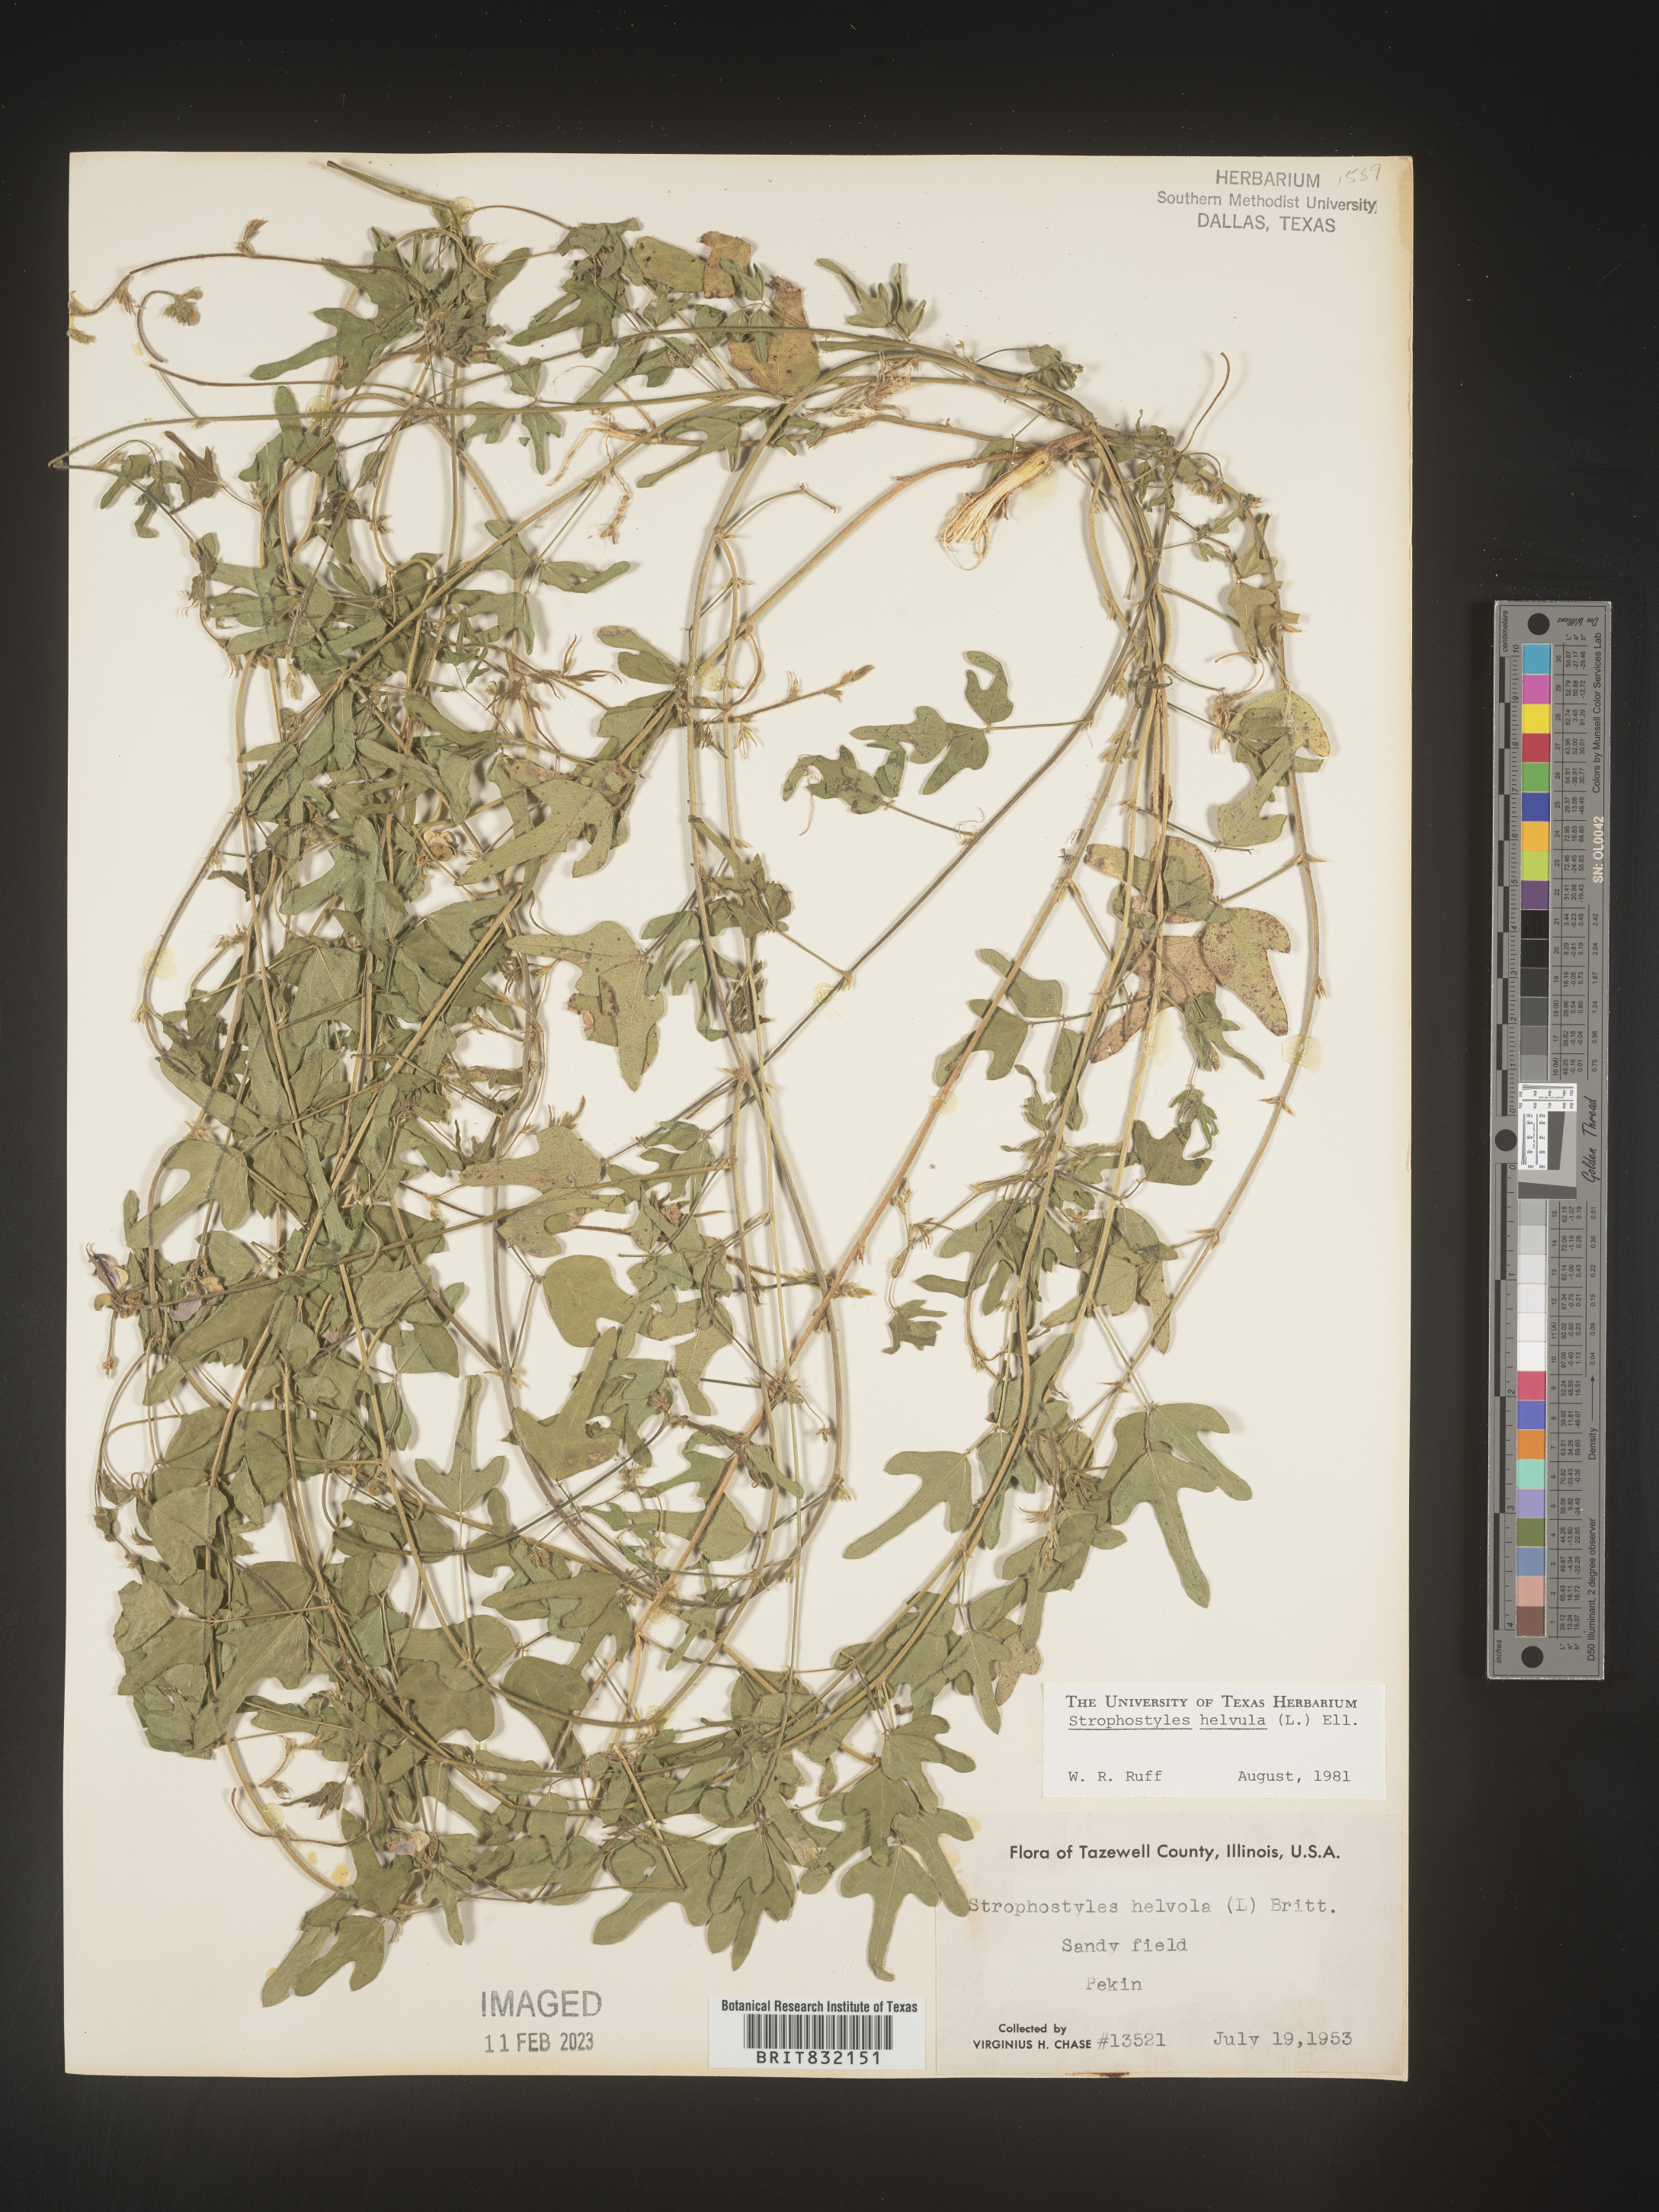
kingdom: Plantae
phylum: Tracheophyta
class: Magnoliopsida
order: Fabales
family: Fabaceae
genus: Strophostyles
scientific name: Strophostyles helvola
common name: Trailing wild bean
